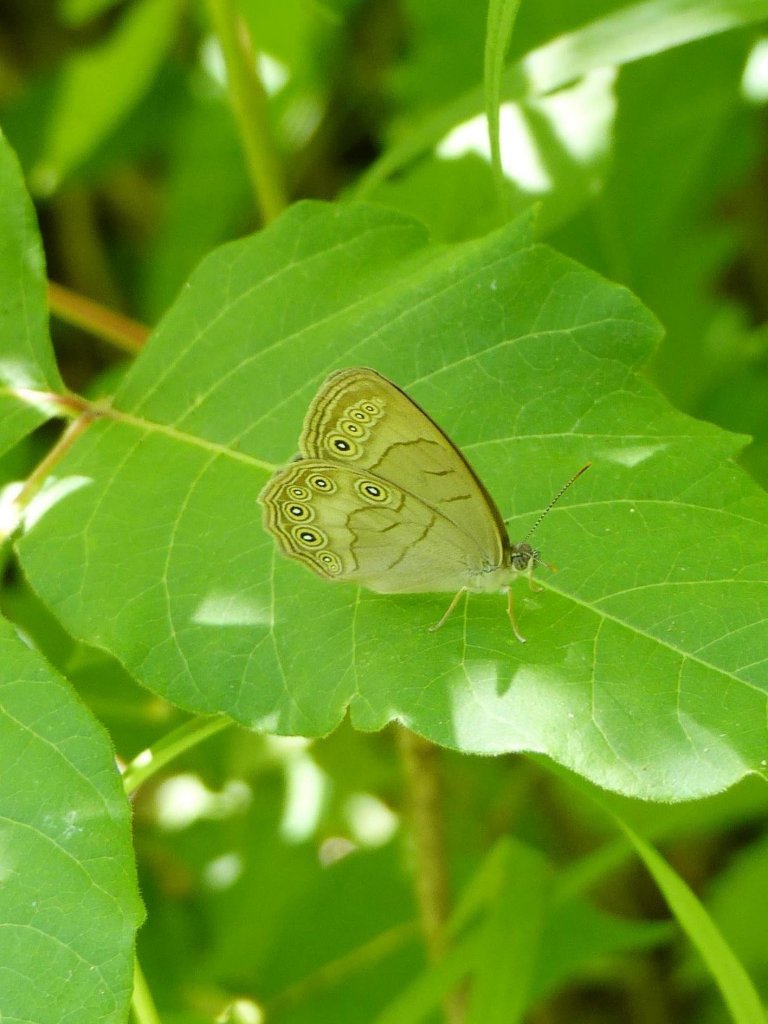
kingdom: Animalia
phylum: Arthropoda
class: Insecta
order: Lepidoptera
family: Nymphalidae
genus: Lethe
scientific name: Lethe eurydice
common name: Appalachian Eyed Brown
